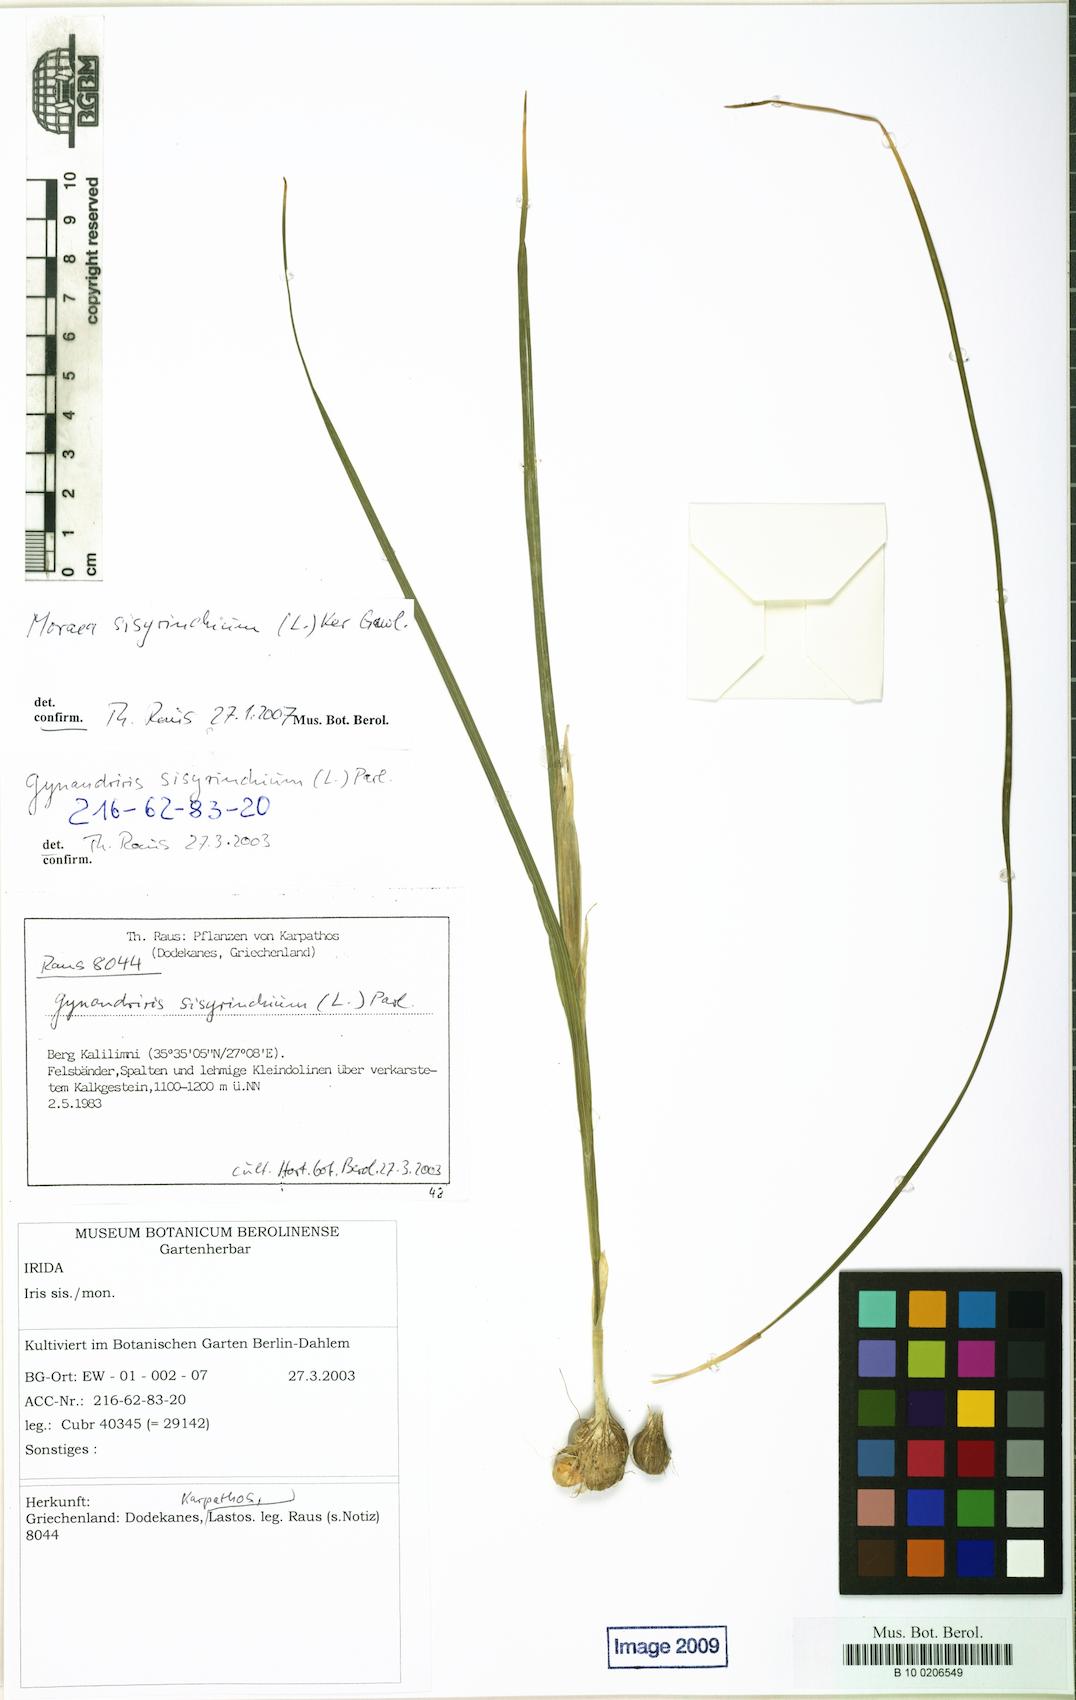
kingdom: Plantae
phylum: Tracheophyta
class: Liliopsida
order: Asparagales
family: Iridaceae
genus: Moraea
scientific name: Moraea sisyrinchium
